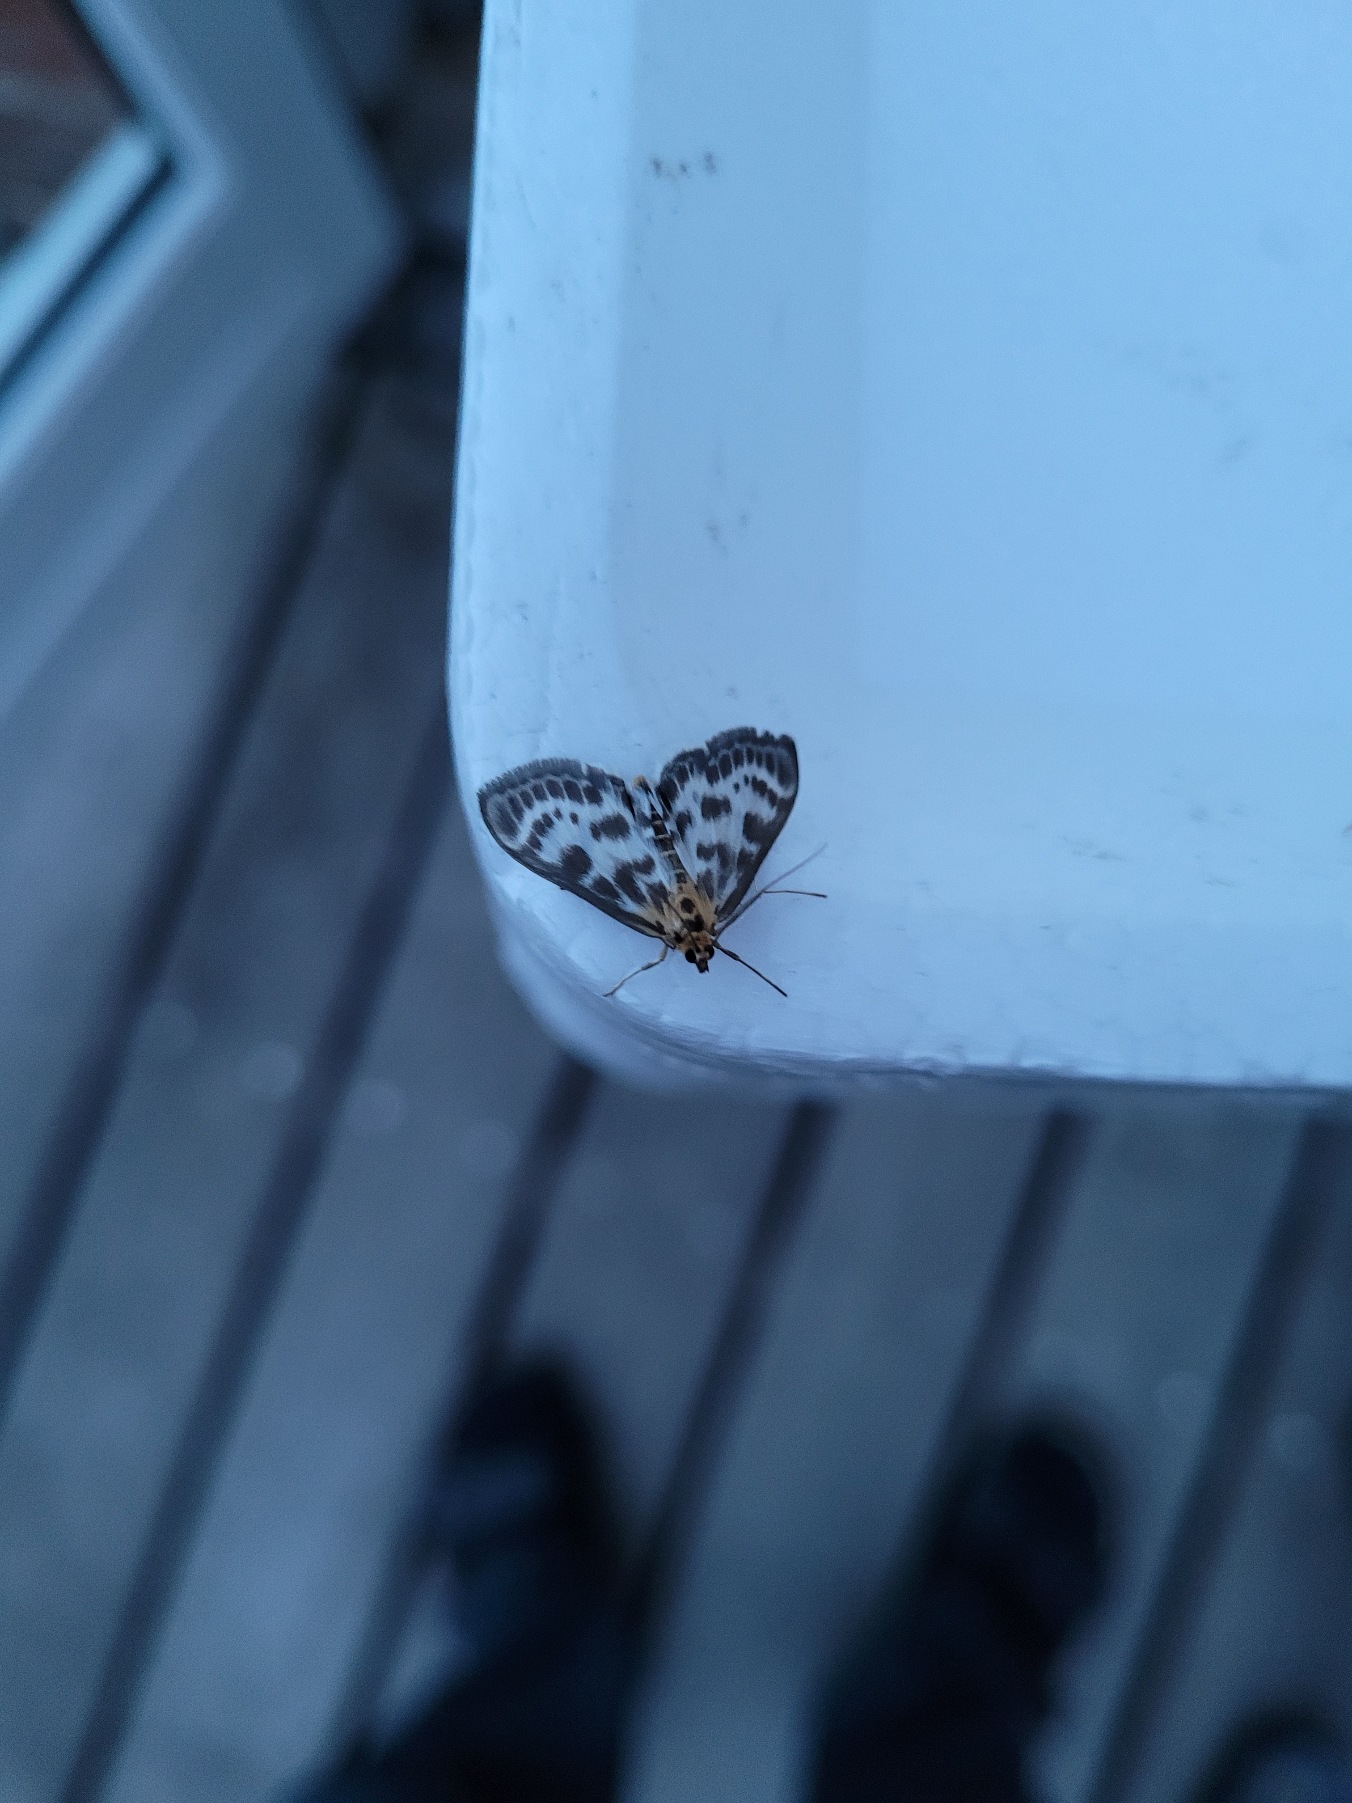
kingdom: Animalia
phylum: Arthropoda
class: Insecta
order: Lepidoptera
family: Crambidae
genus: Anania
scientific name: Anania hortulata
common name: Nældehalvmøl
